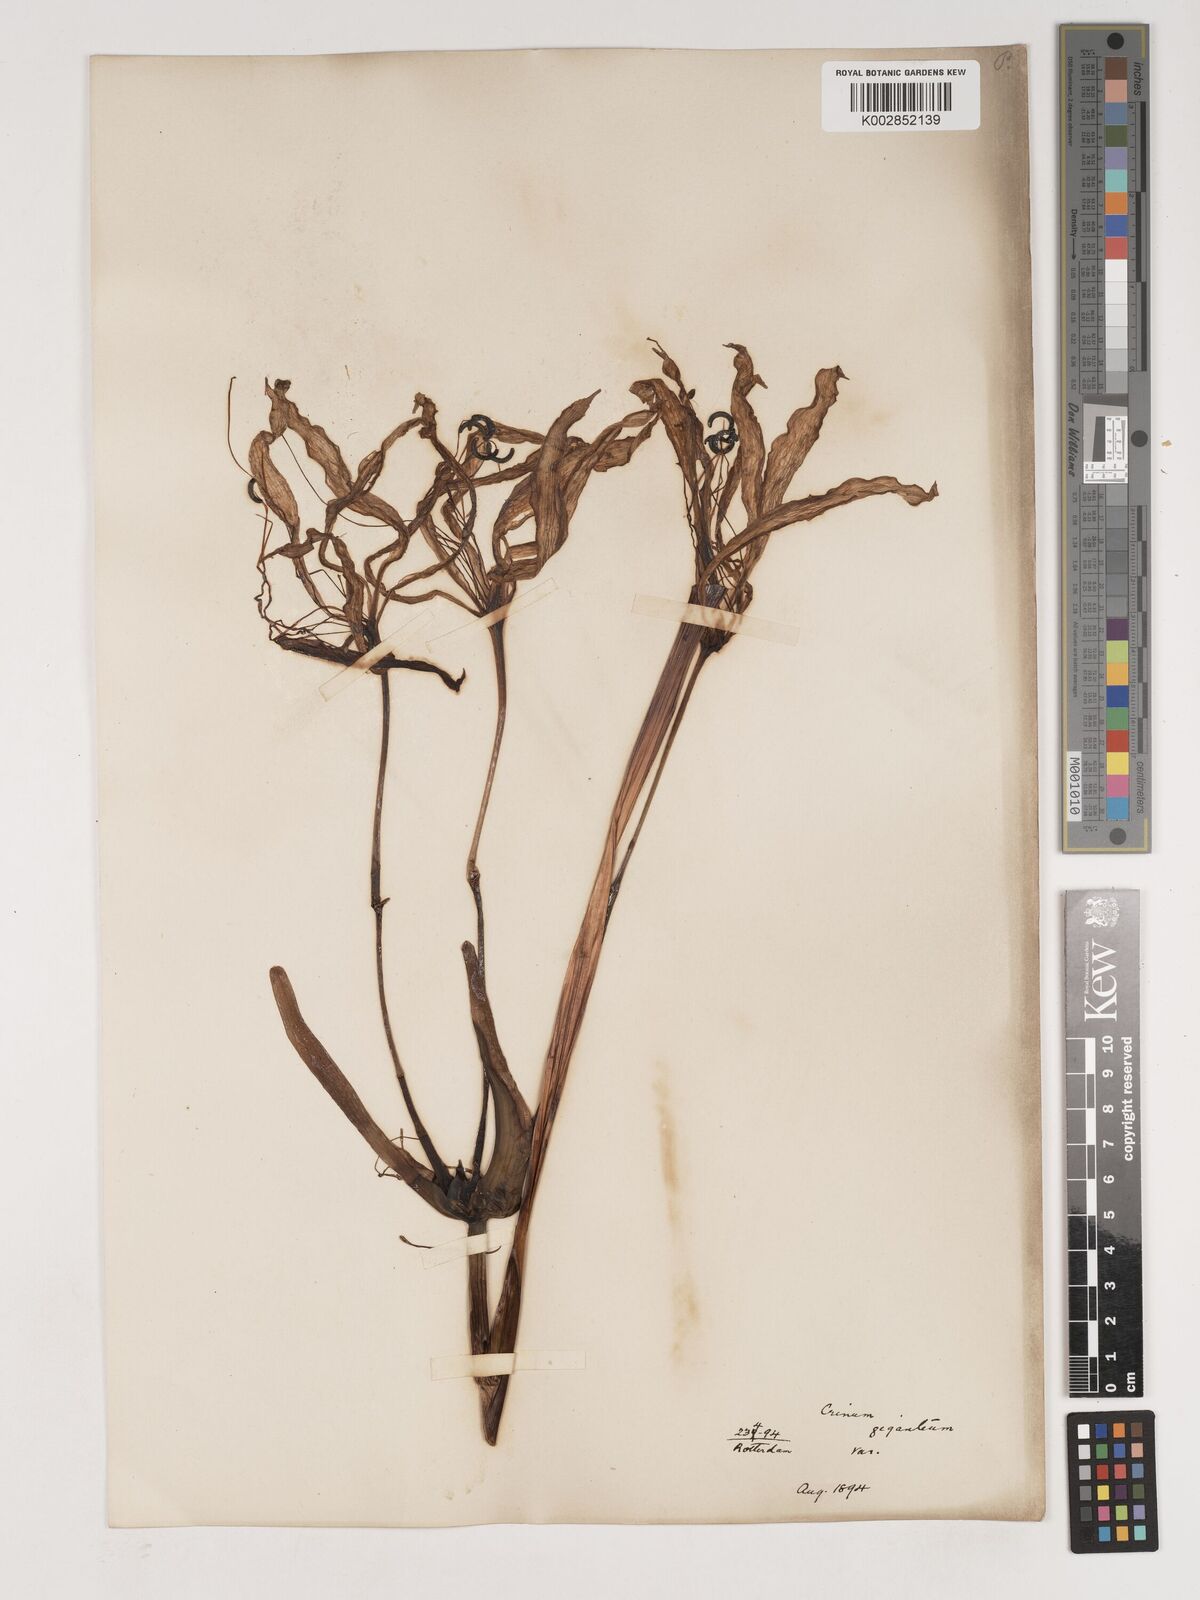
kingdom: Plantae
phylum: Tracheophyta
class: Liliopsida
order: Asparagales
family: Amaryllidaceae
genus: Crinum
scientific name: Crinum jagus
